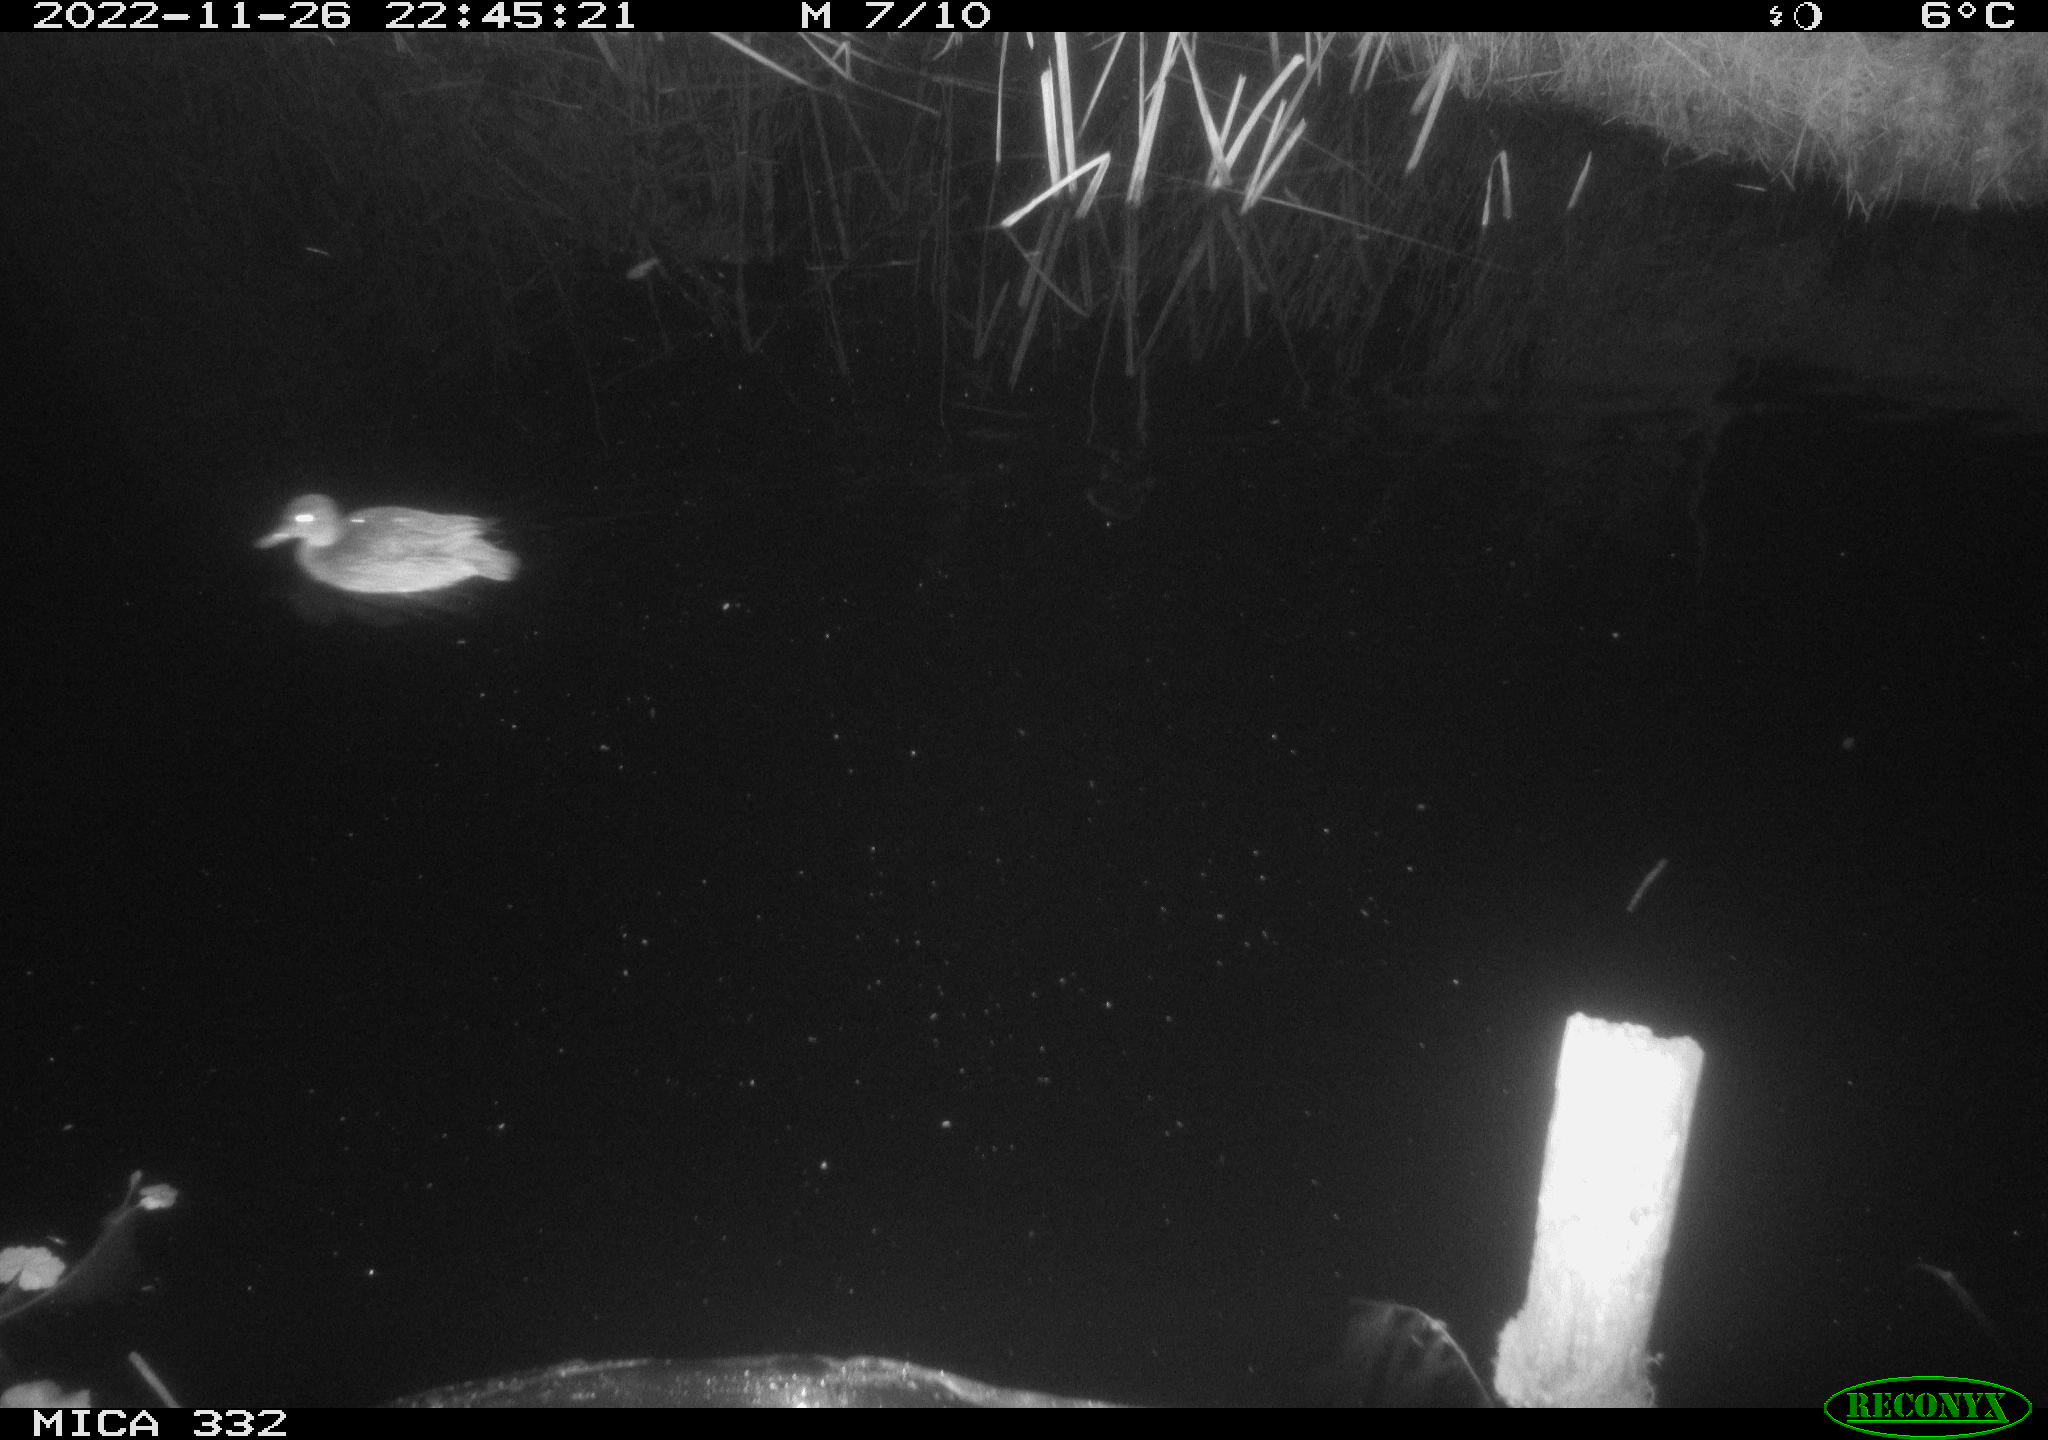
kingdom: Animalia
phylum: Chordata
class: Aves
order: Anseriformes
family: Anatidae
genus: Anas
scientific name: Anas
